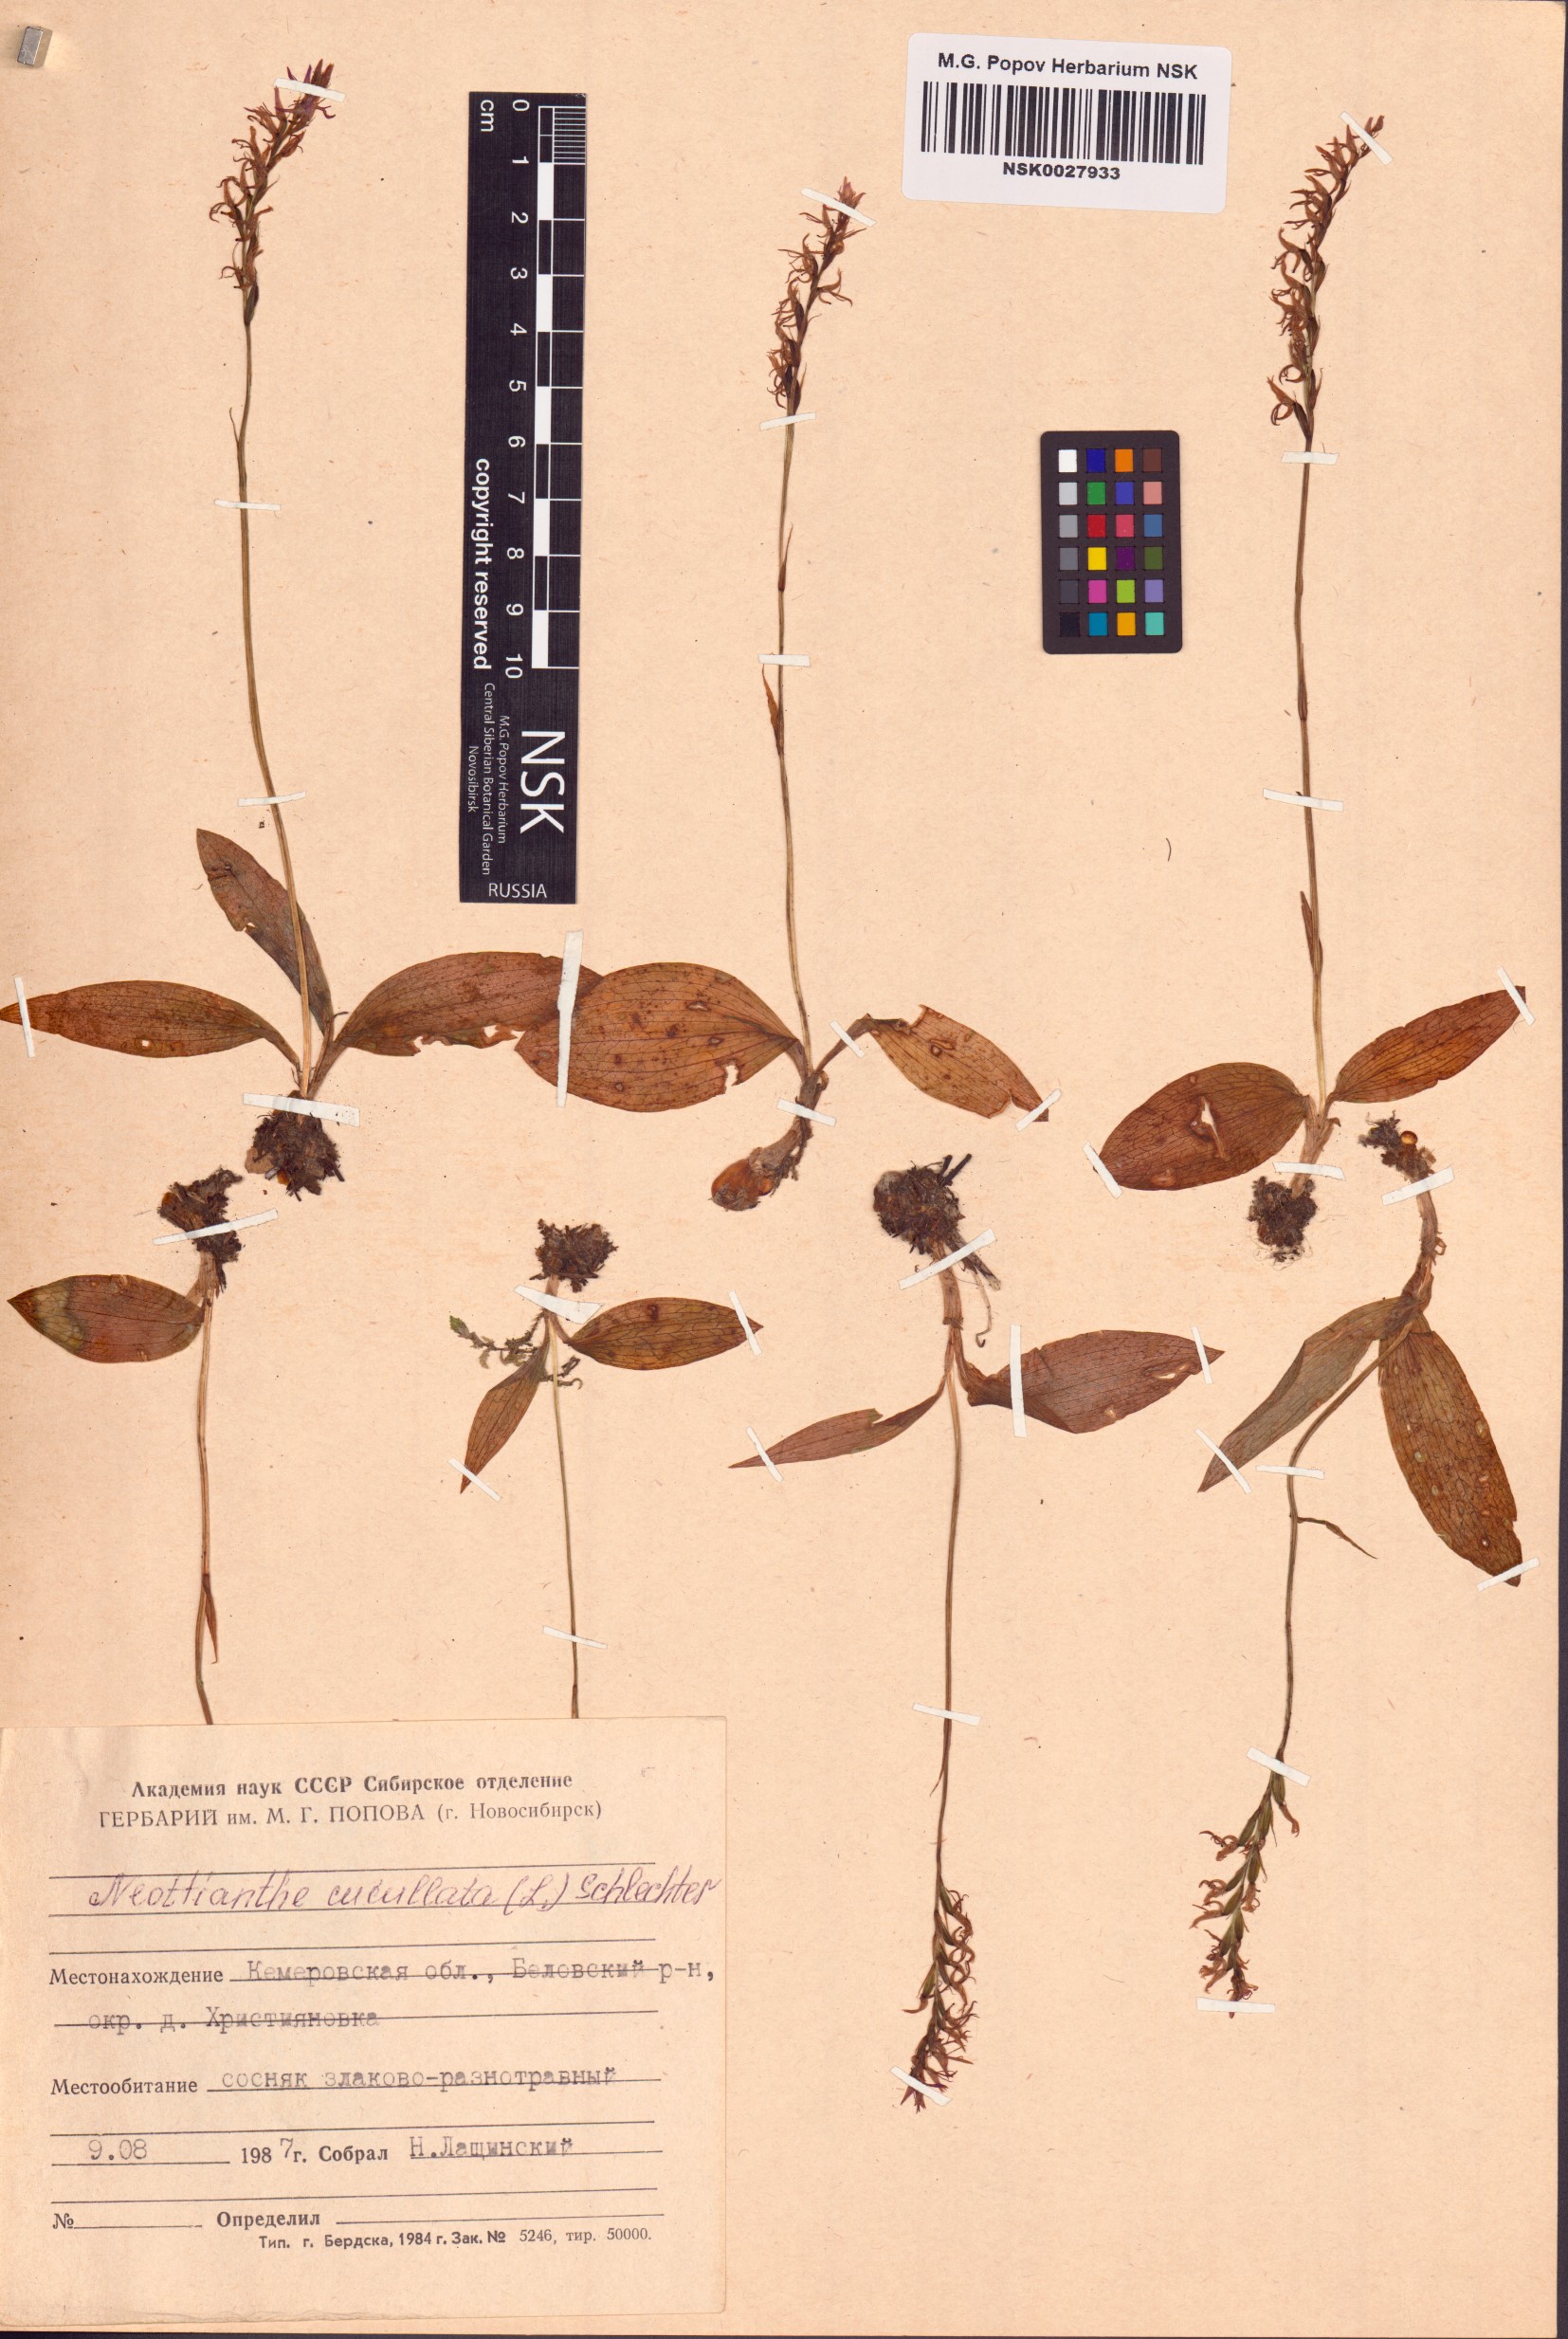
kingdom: Plantae
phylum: Tracheophyta
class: Liliopsida
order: Asparagales
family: Orchidaceae
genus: Hemipilia
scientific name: Hemipilia cucullata
